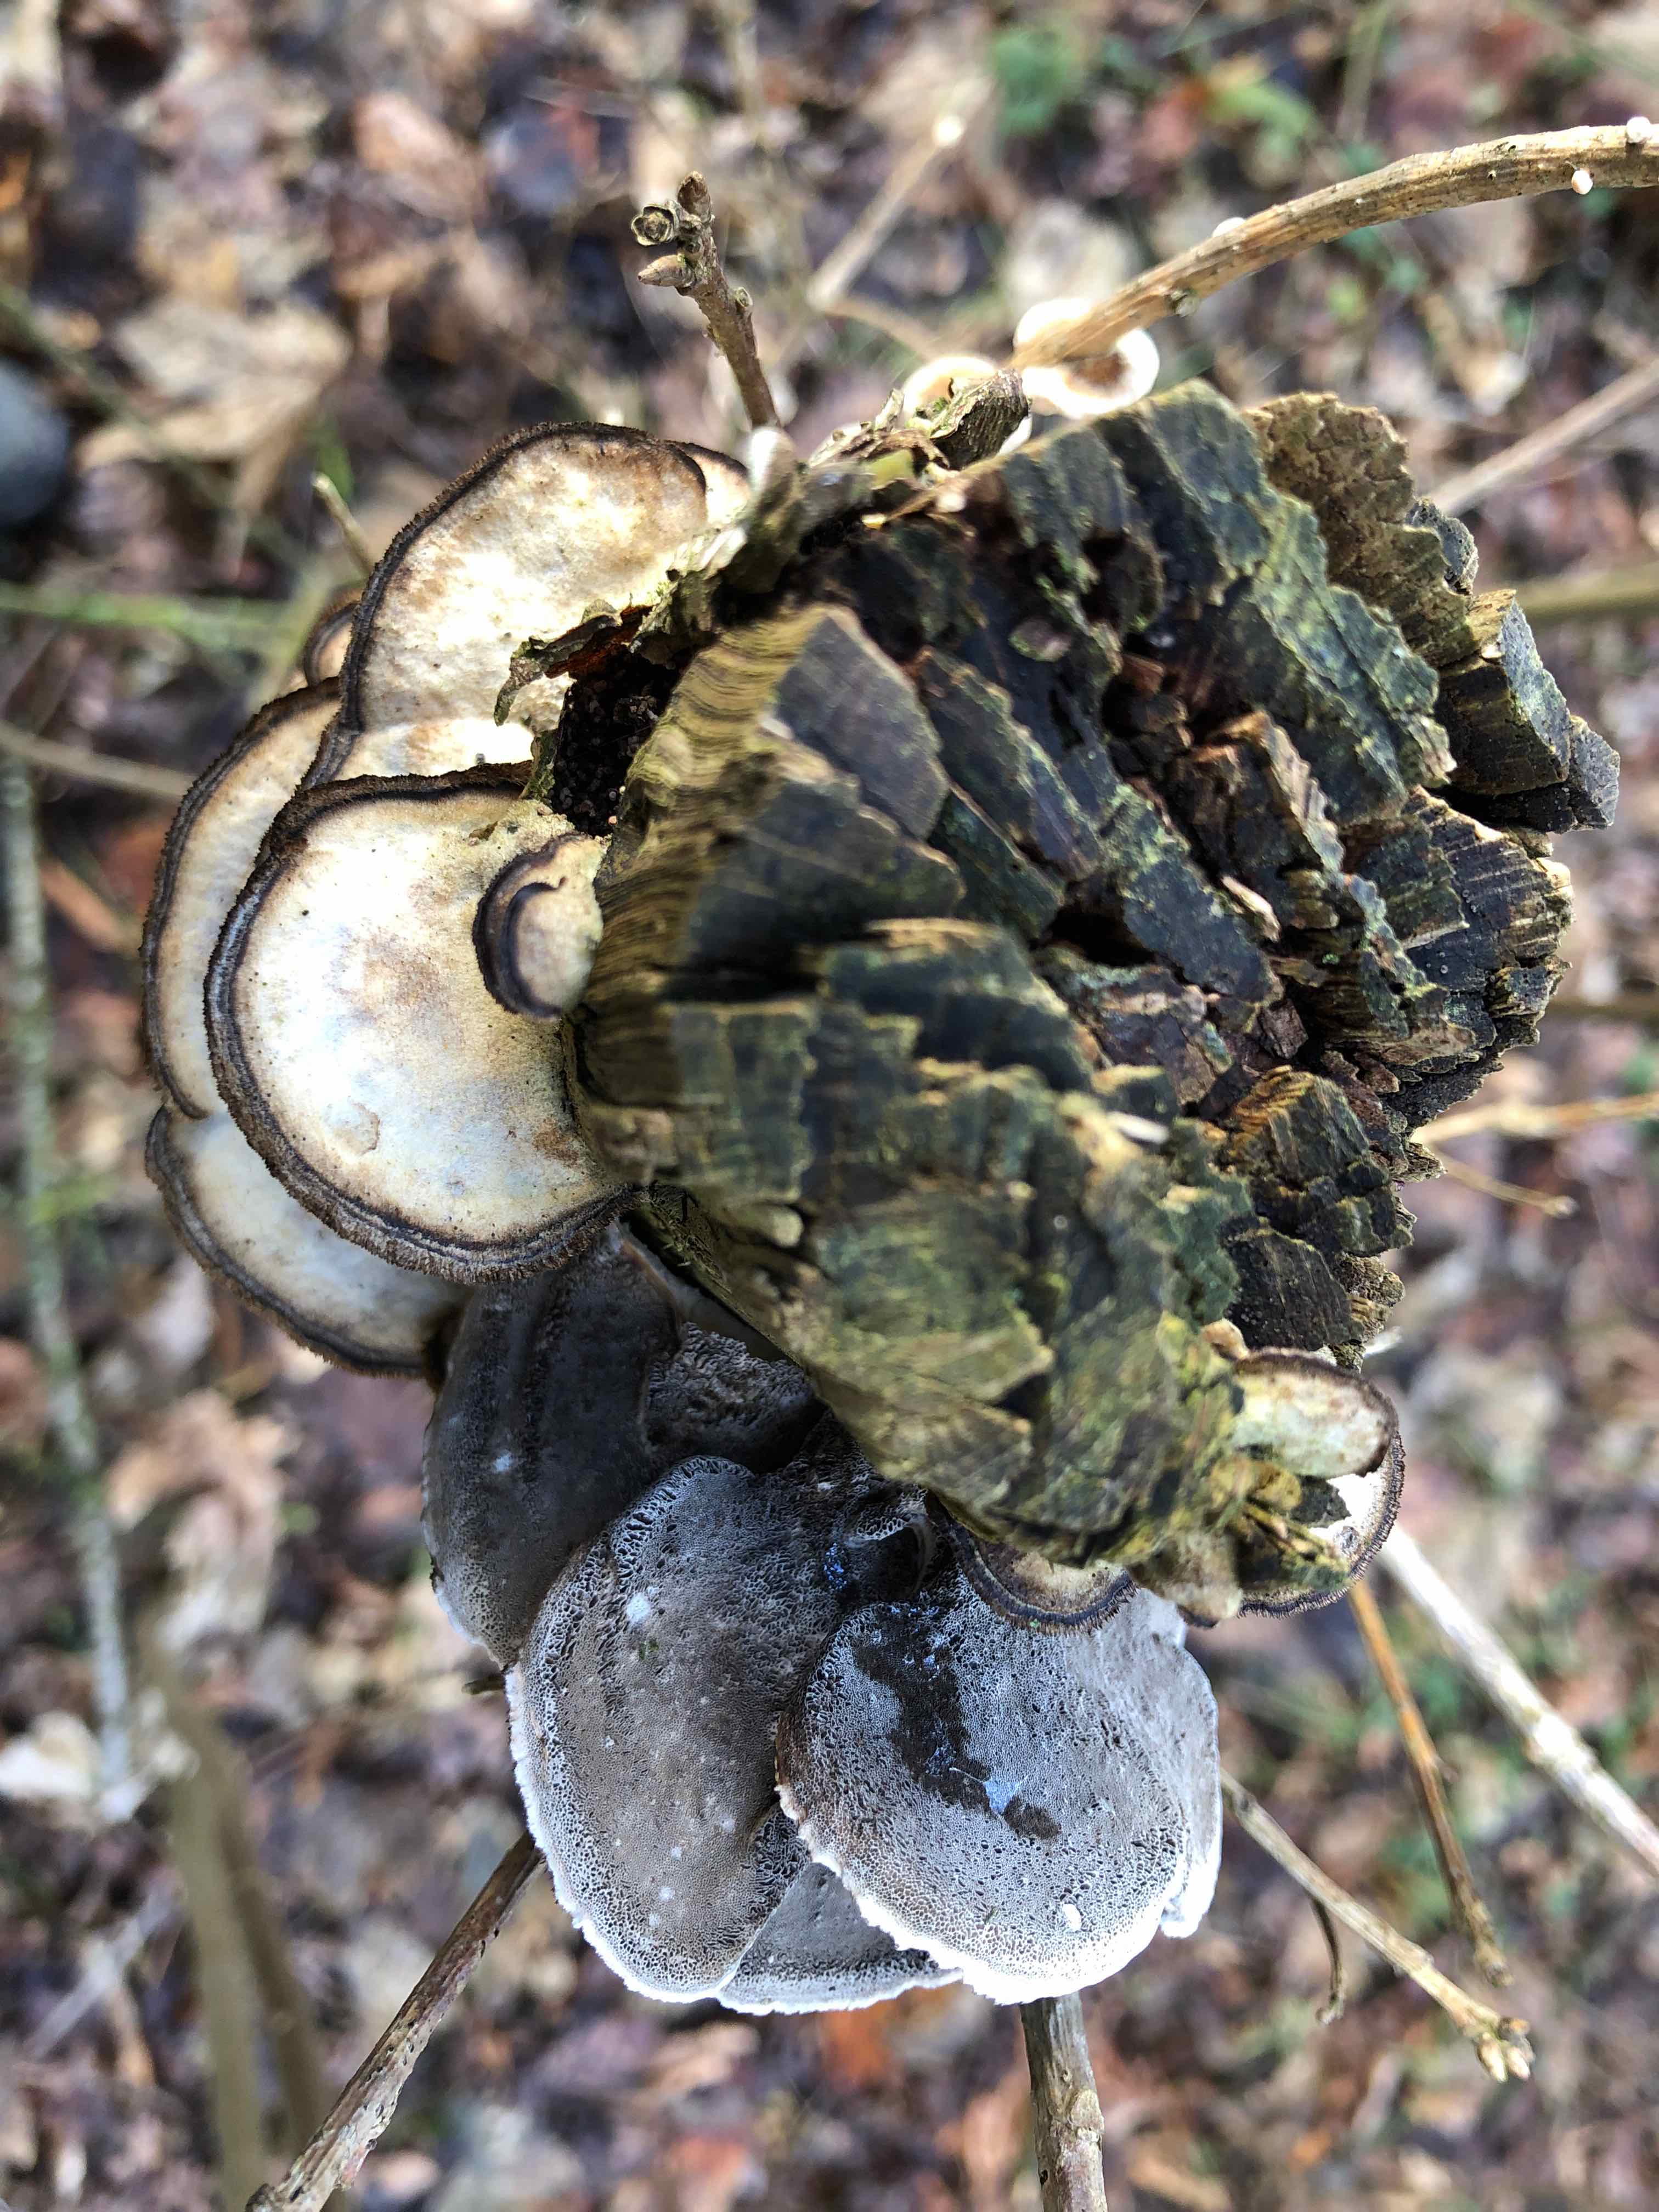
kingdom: Fungi
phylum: Basidiomycota
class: Agaricomycetes
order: Polyporales
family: Phanerochaetaceae
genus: Bjerkandera
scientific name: Bjerkandera adusta
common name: sveden sodporesvamp
